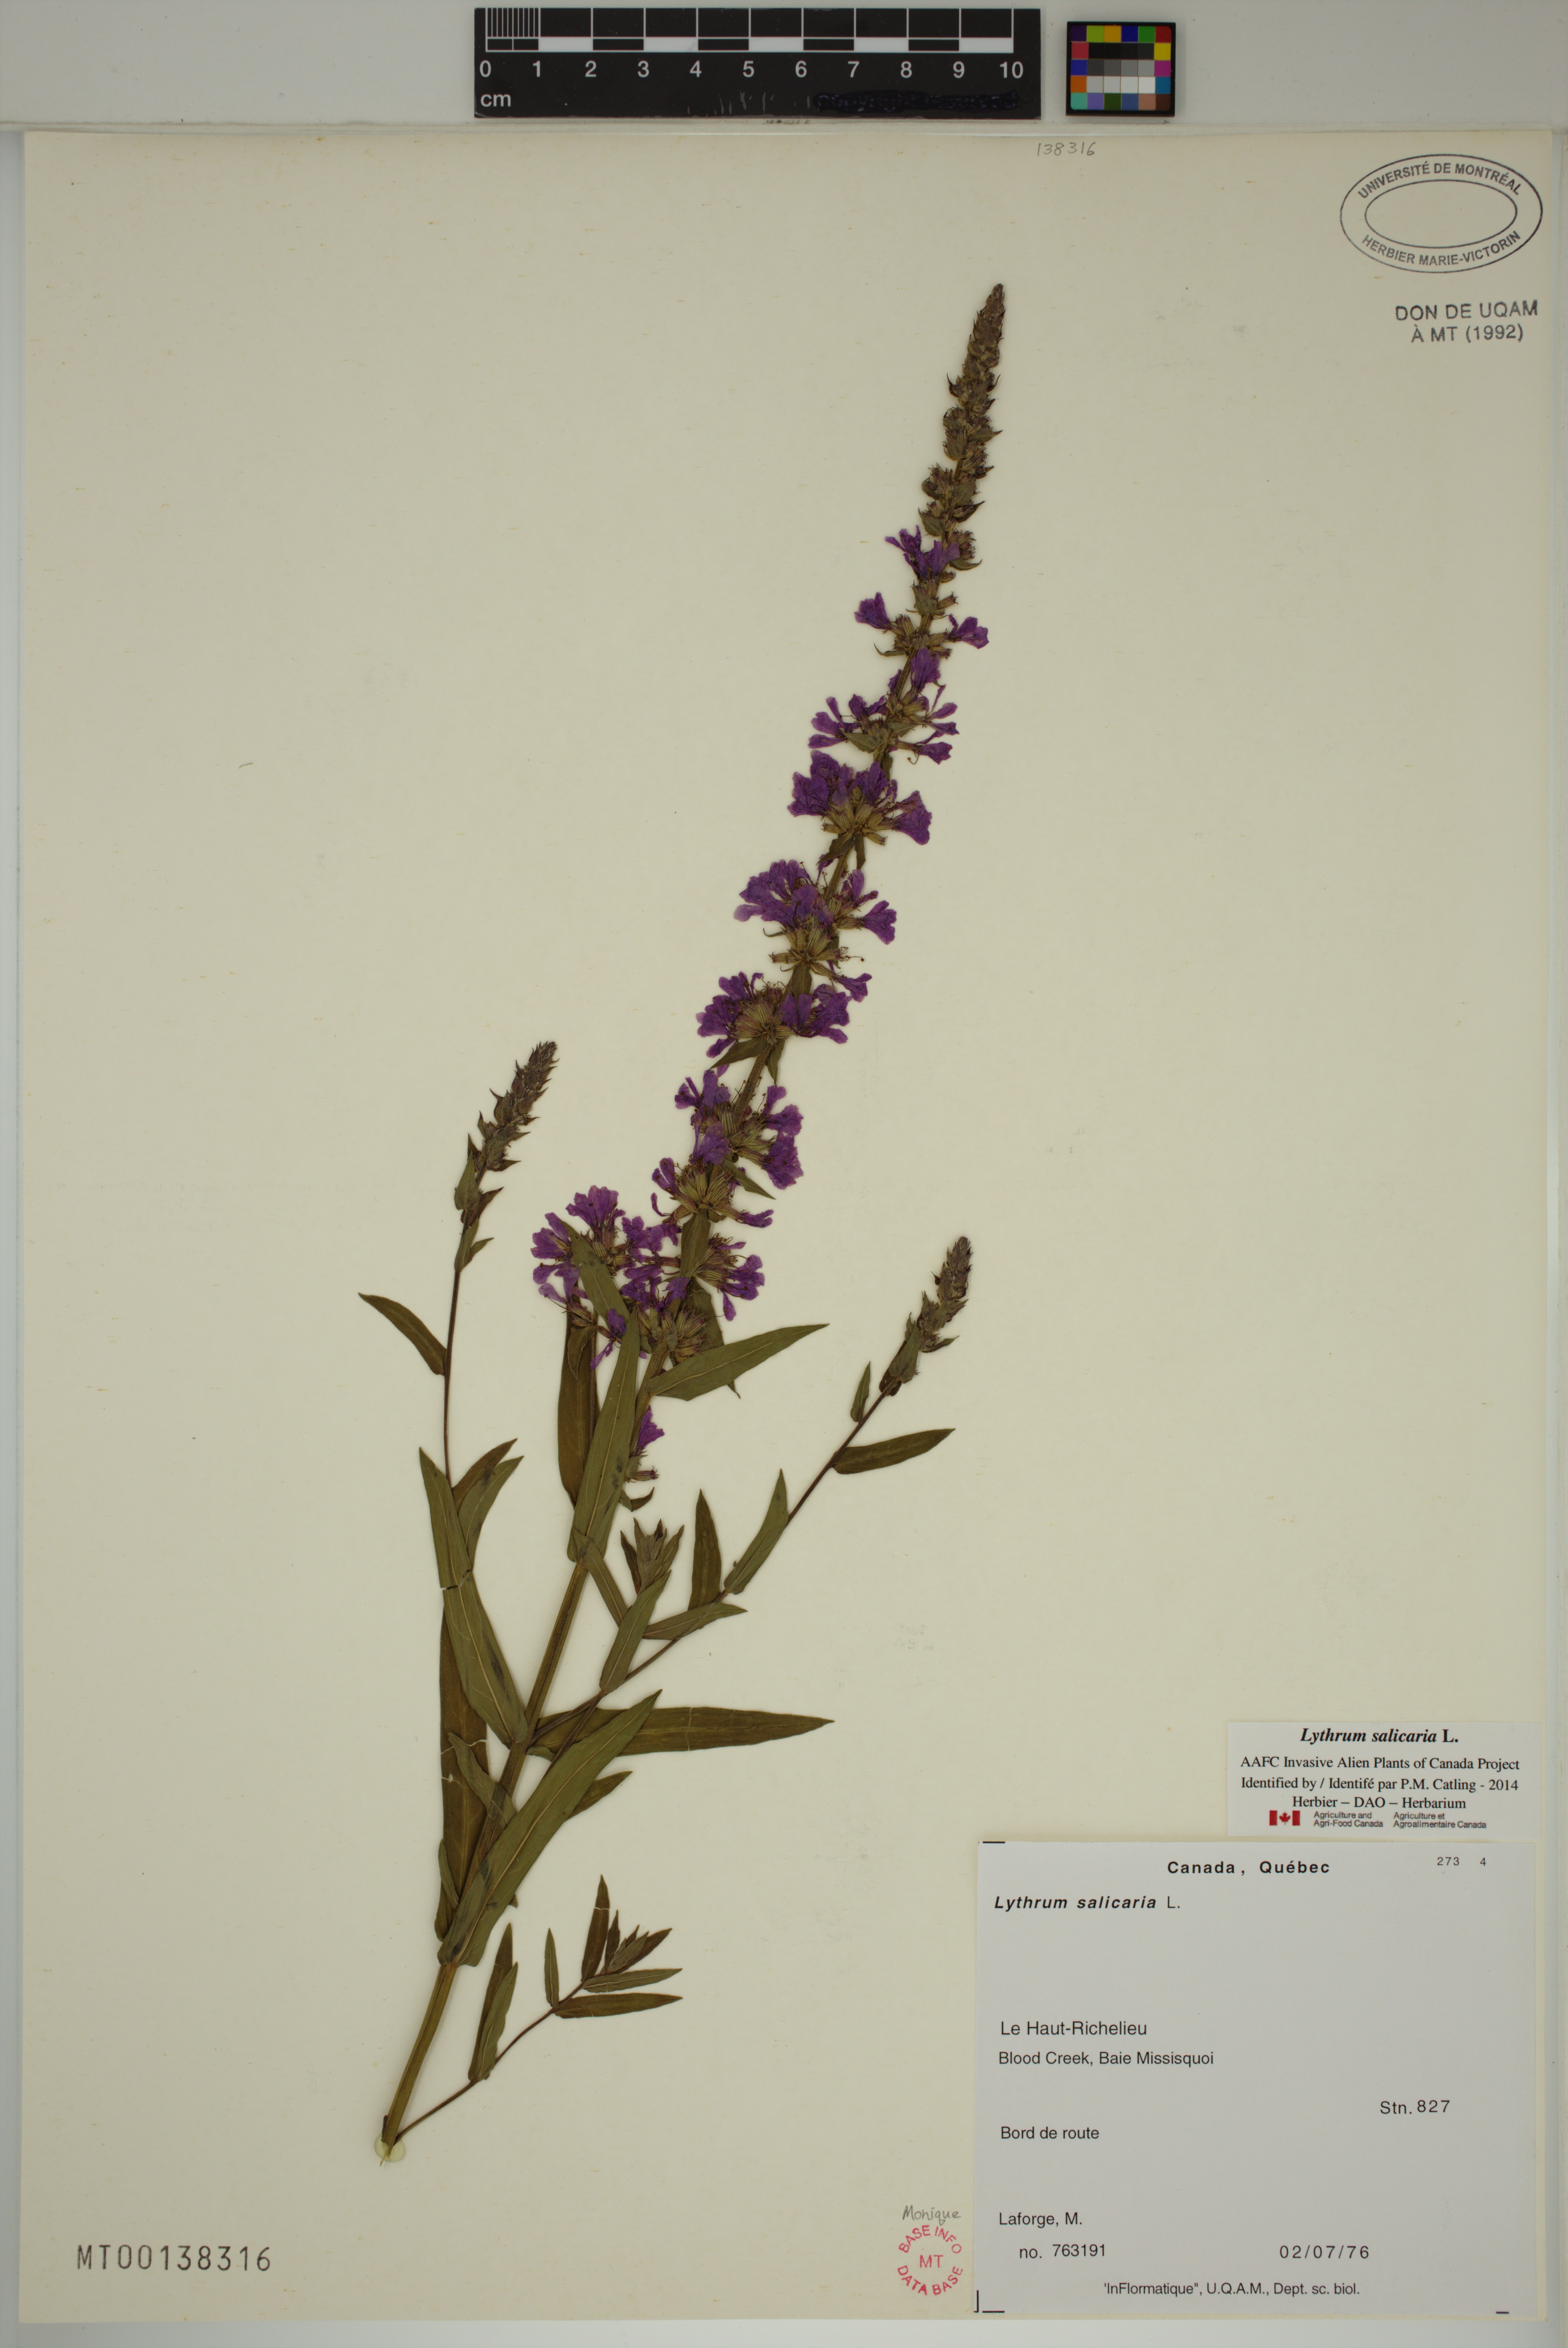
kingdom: Plantae
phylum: Tracheophyta
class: Magnoliopsida
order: Myrtales
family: Lythraceae
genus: Lythrum
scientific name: Lythrum salicaria
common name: Purple loosestrife
